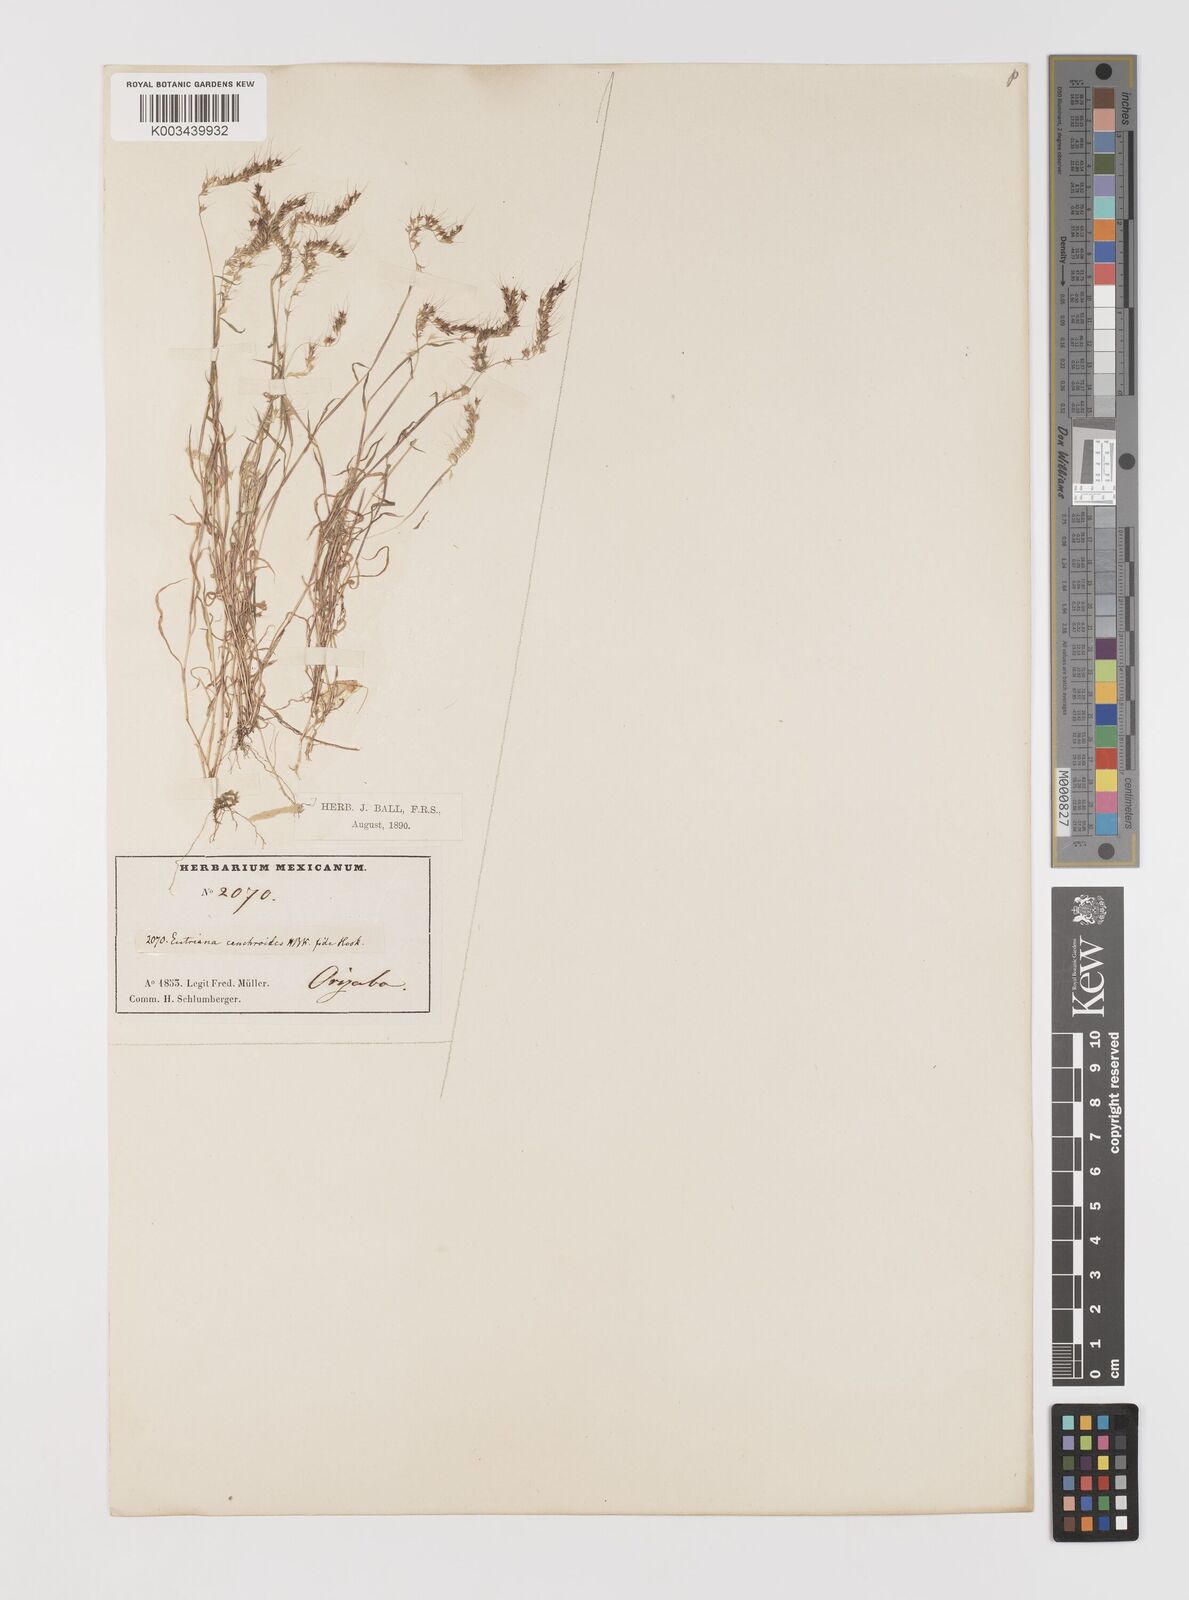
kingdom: Plantae
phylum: Tracheophyta
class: Liliopsida
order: Poales
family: Poaceae
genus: Muhlenbergia
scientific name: Muhlenbergia uniseta
